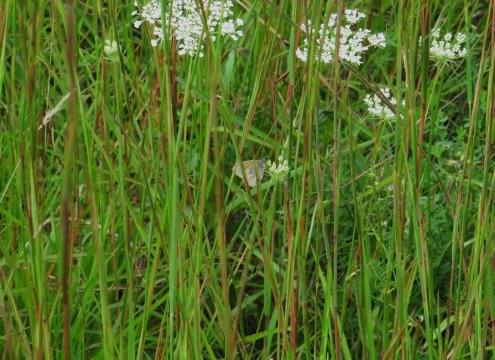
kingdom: Animalia
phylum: Arthropoda
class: Insecta
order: Lepidoptera
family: Nymphalidae
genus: Coenonympha
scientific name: Coenonympha tullia
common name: Large Heath
